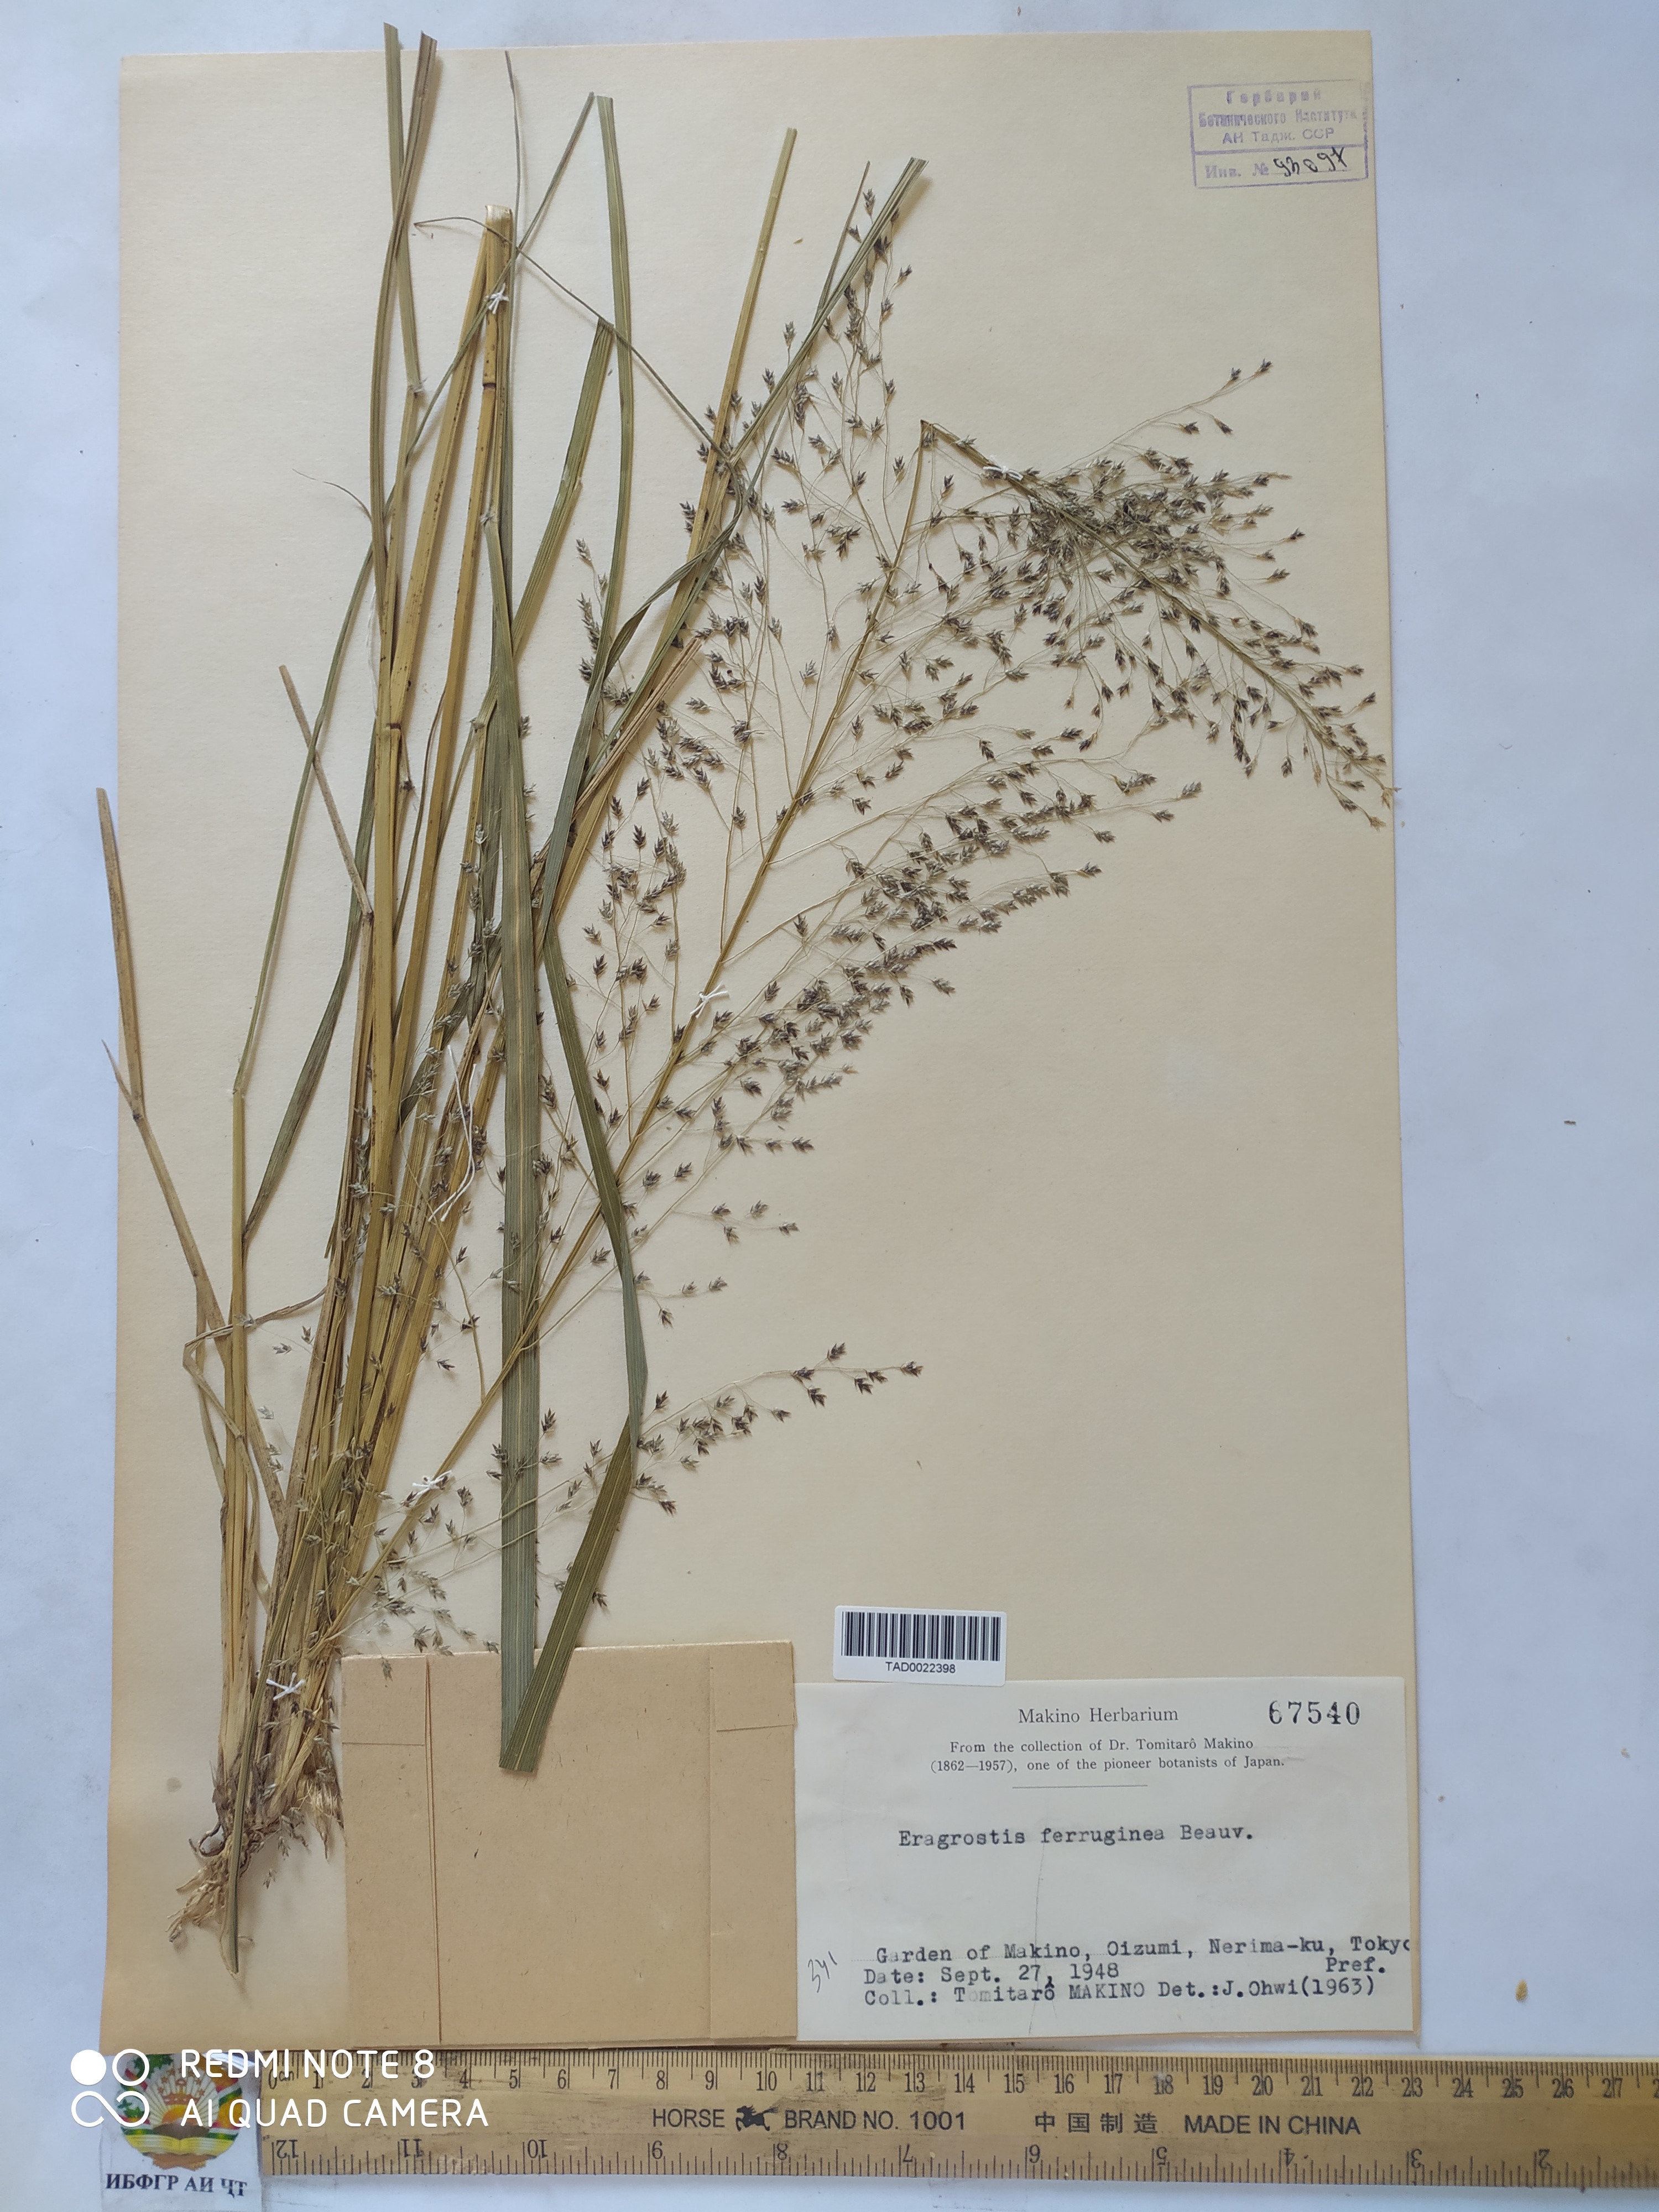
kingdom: Plantae
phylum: Tracheophyta
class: Liliopsida
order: Poales
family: Poaceae
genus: Eragrostis
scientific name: Eragrostis ferruginea
